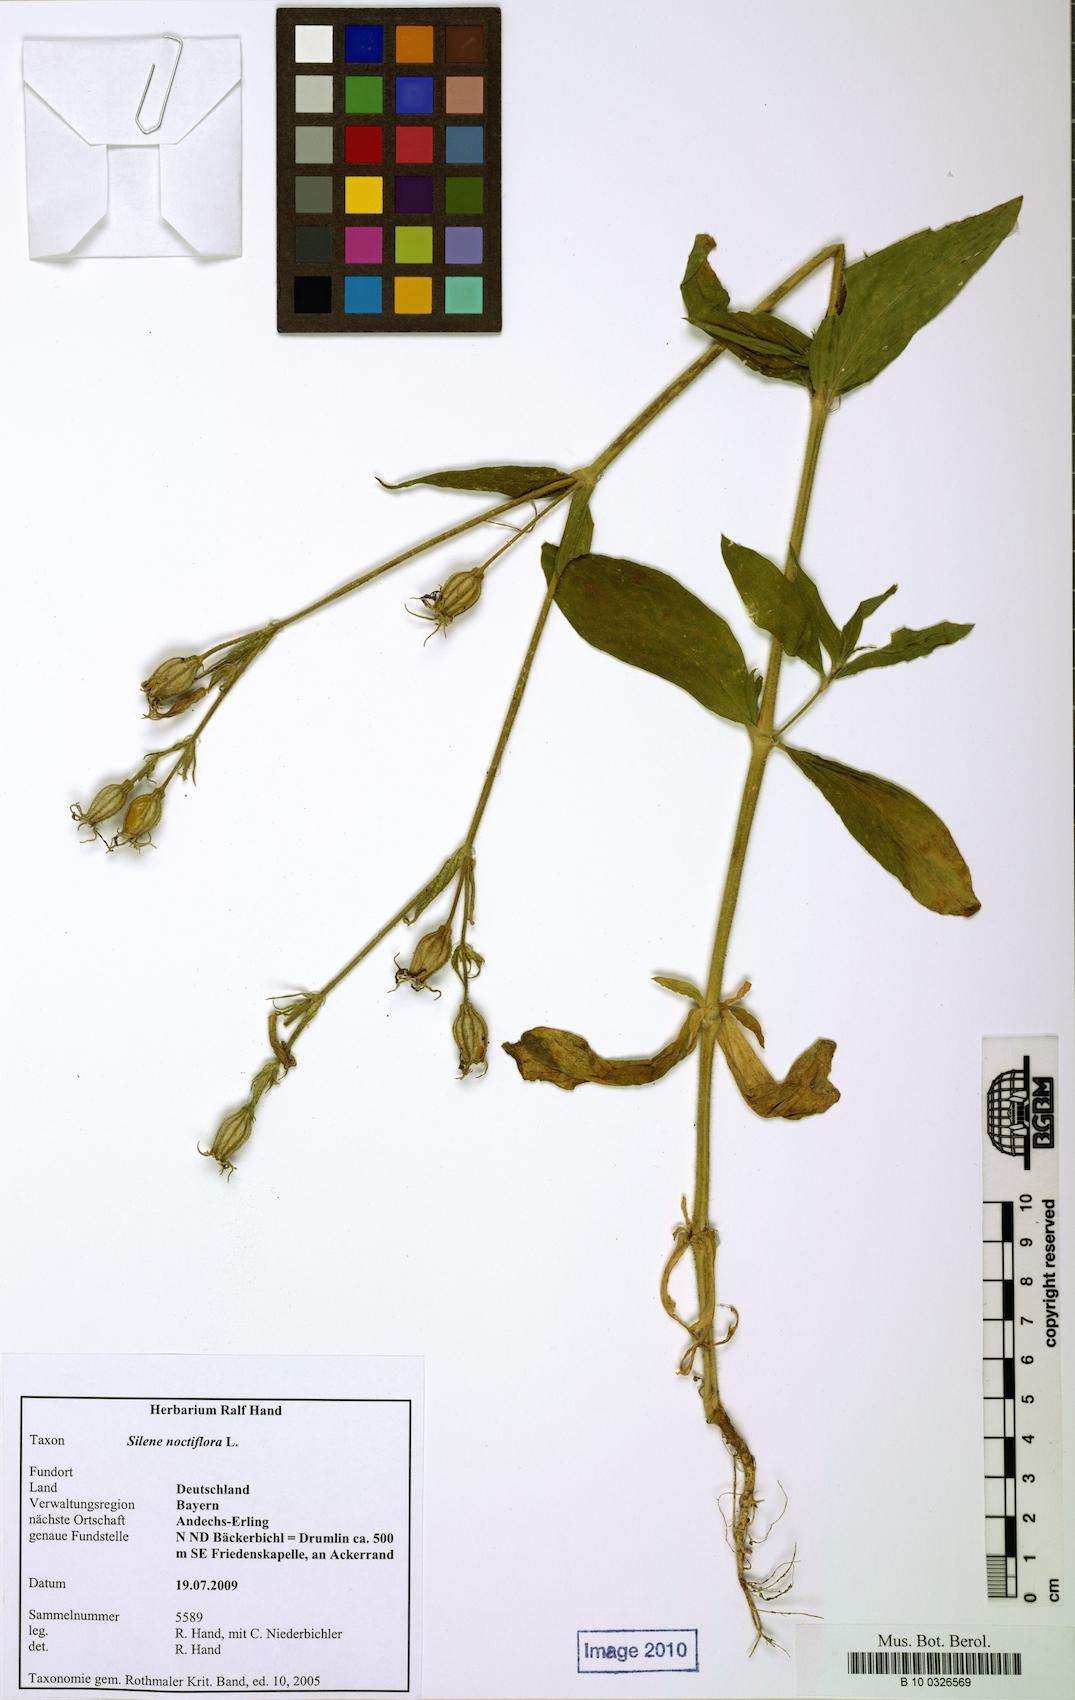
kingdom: Plantae
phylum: Tracheophyta
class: Magnoliopsida
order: Caryophyllales
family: Caryophyllaceae
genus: Silene
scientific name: Silene noctiflora
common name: Night-flowering catchfly
